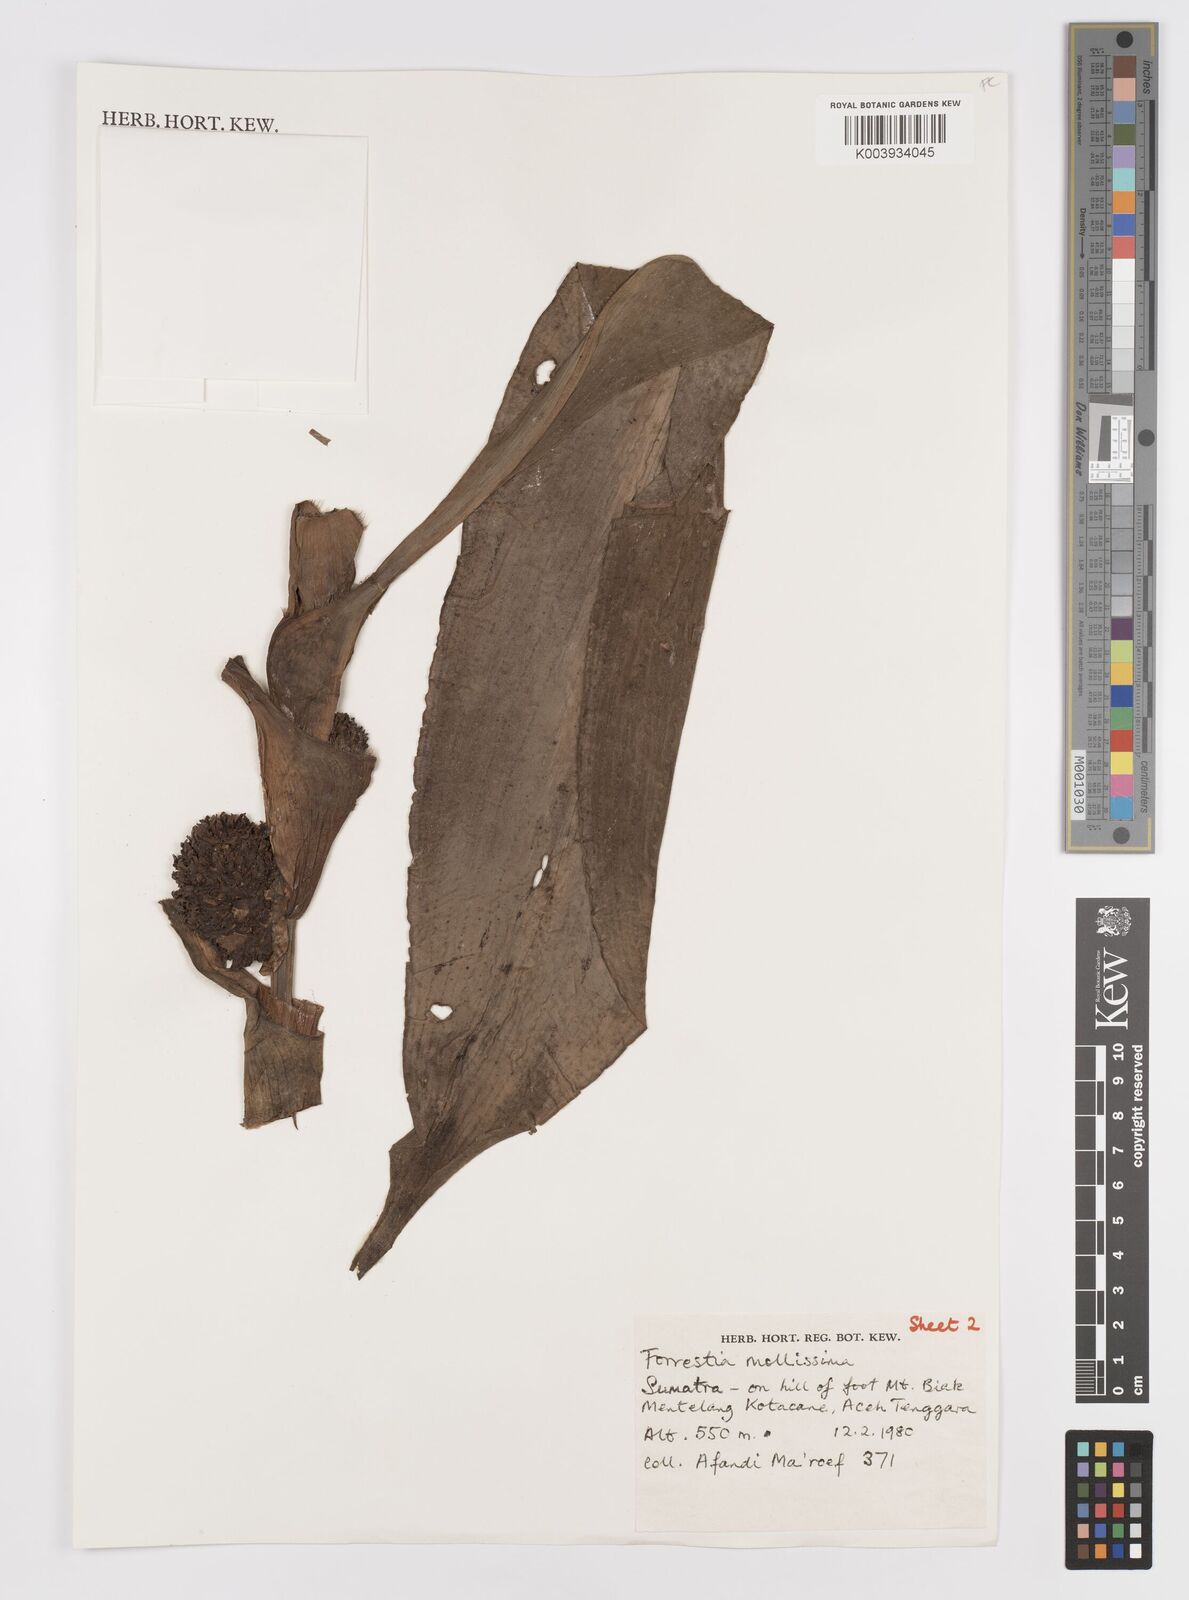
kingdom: Plantae
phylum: Tracheophyta
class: Liliopsida
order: Commelinales
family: Commelinaceae
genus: Amischotolype
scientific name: Amischotolype mollissima
